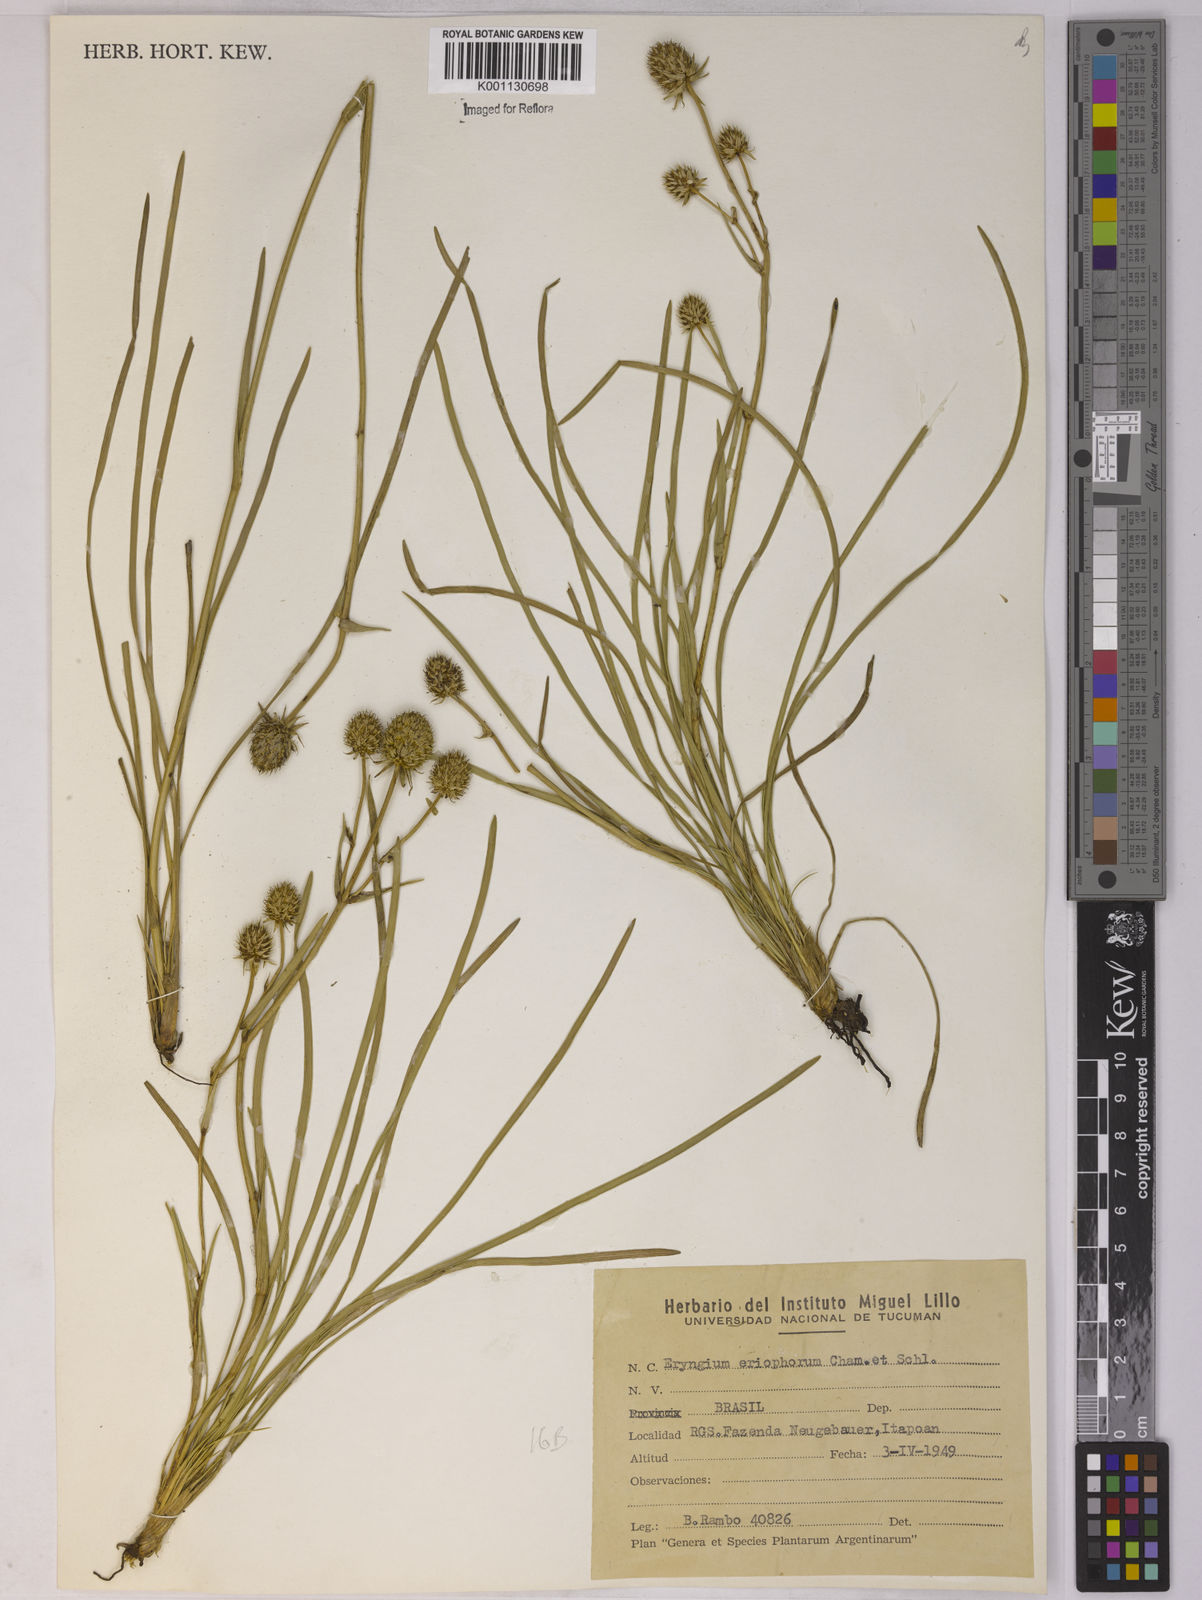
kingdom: Plantae
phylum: Tracheophyta
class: Magnoliopsida
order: Apiales
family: Apiaceae
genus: Eryngium
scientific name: Eryngium eriophorum
